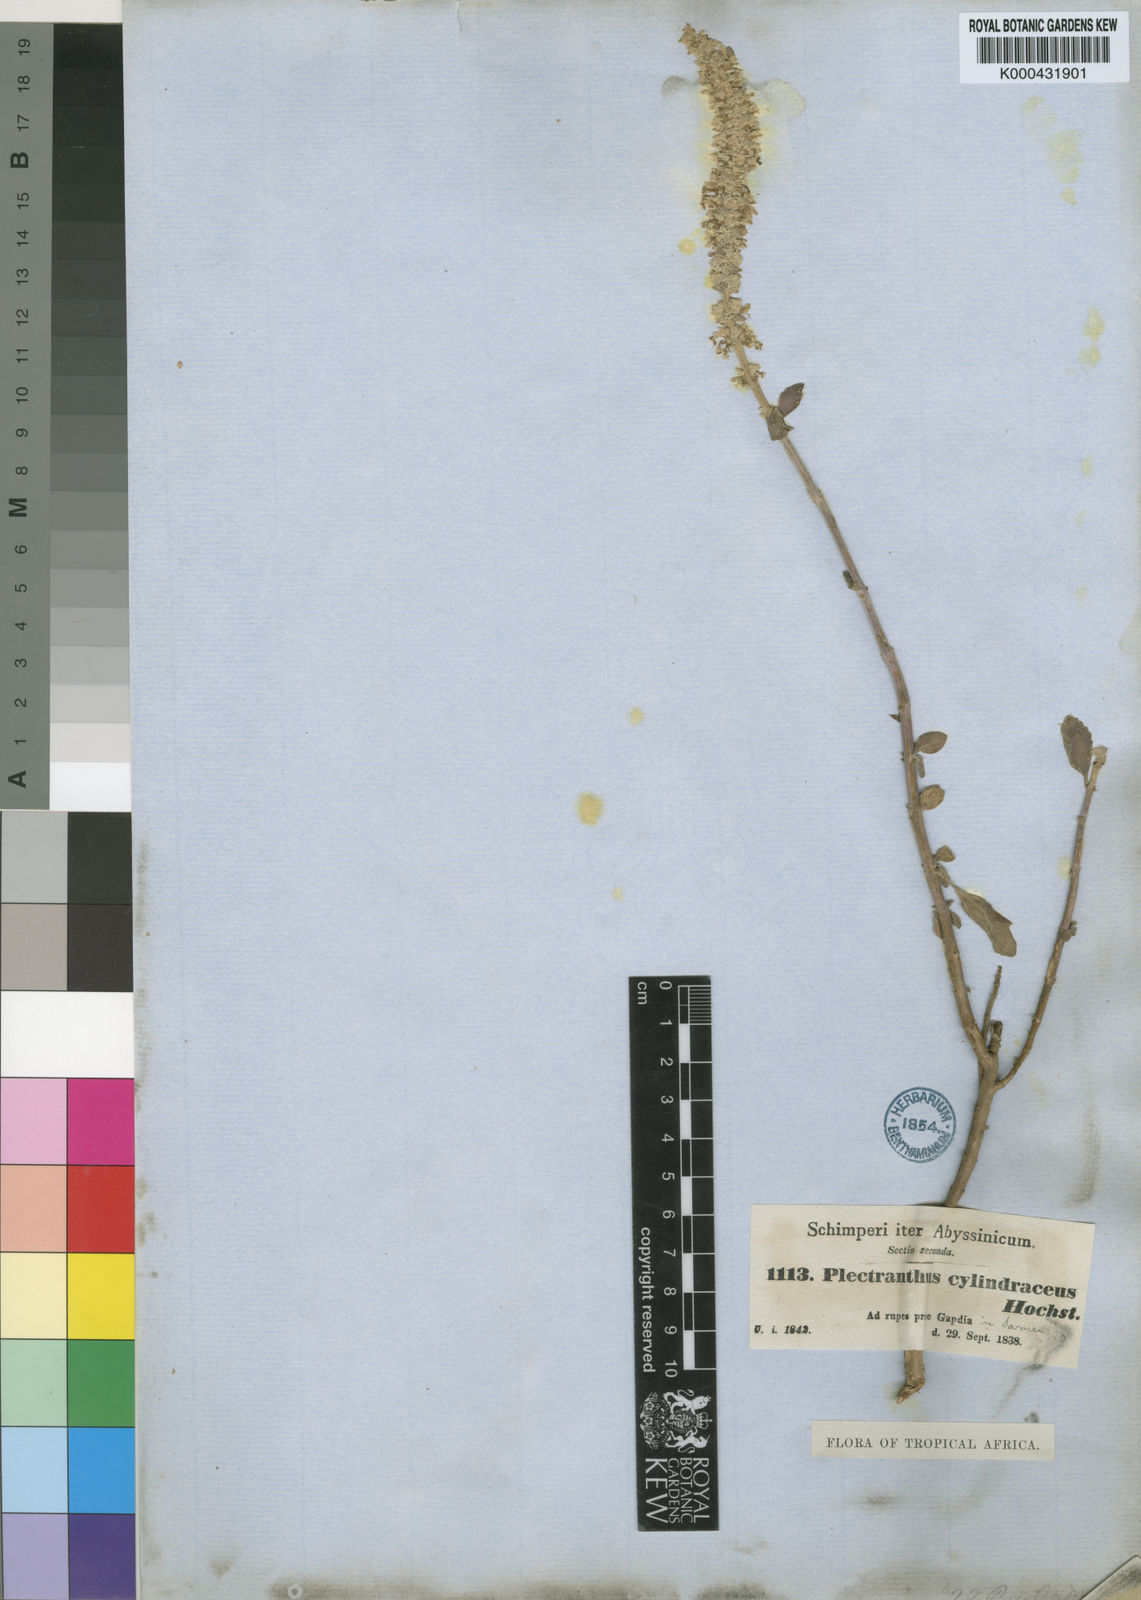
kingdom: Plantae
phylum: Tracheophyta
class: Magnoliopsida
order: Lamiales
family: Lamiaceae
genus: Coleus
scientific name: Coleus cylindraceus
